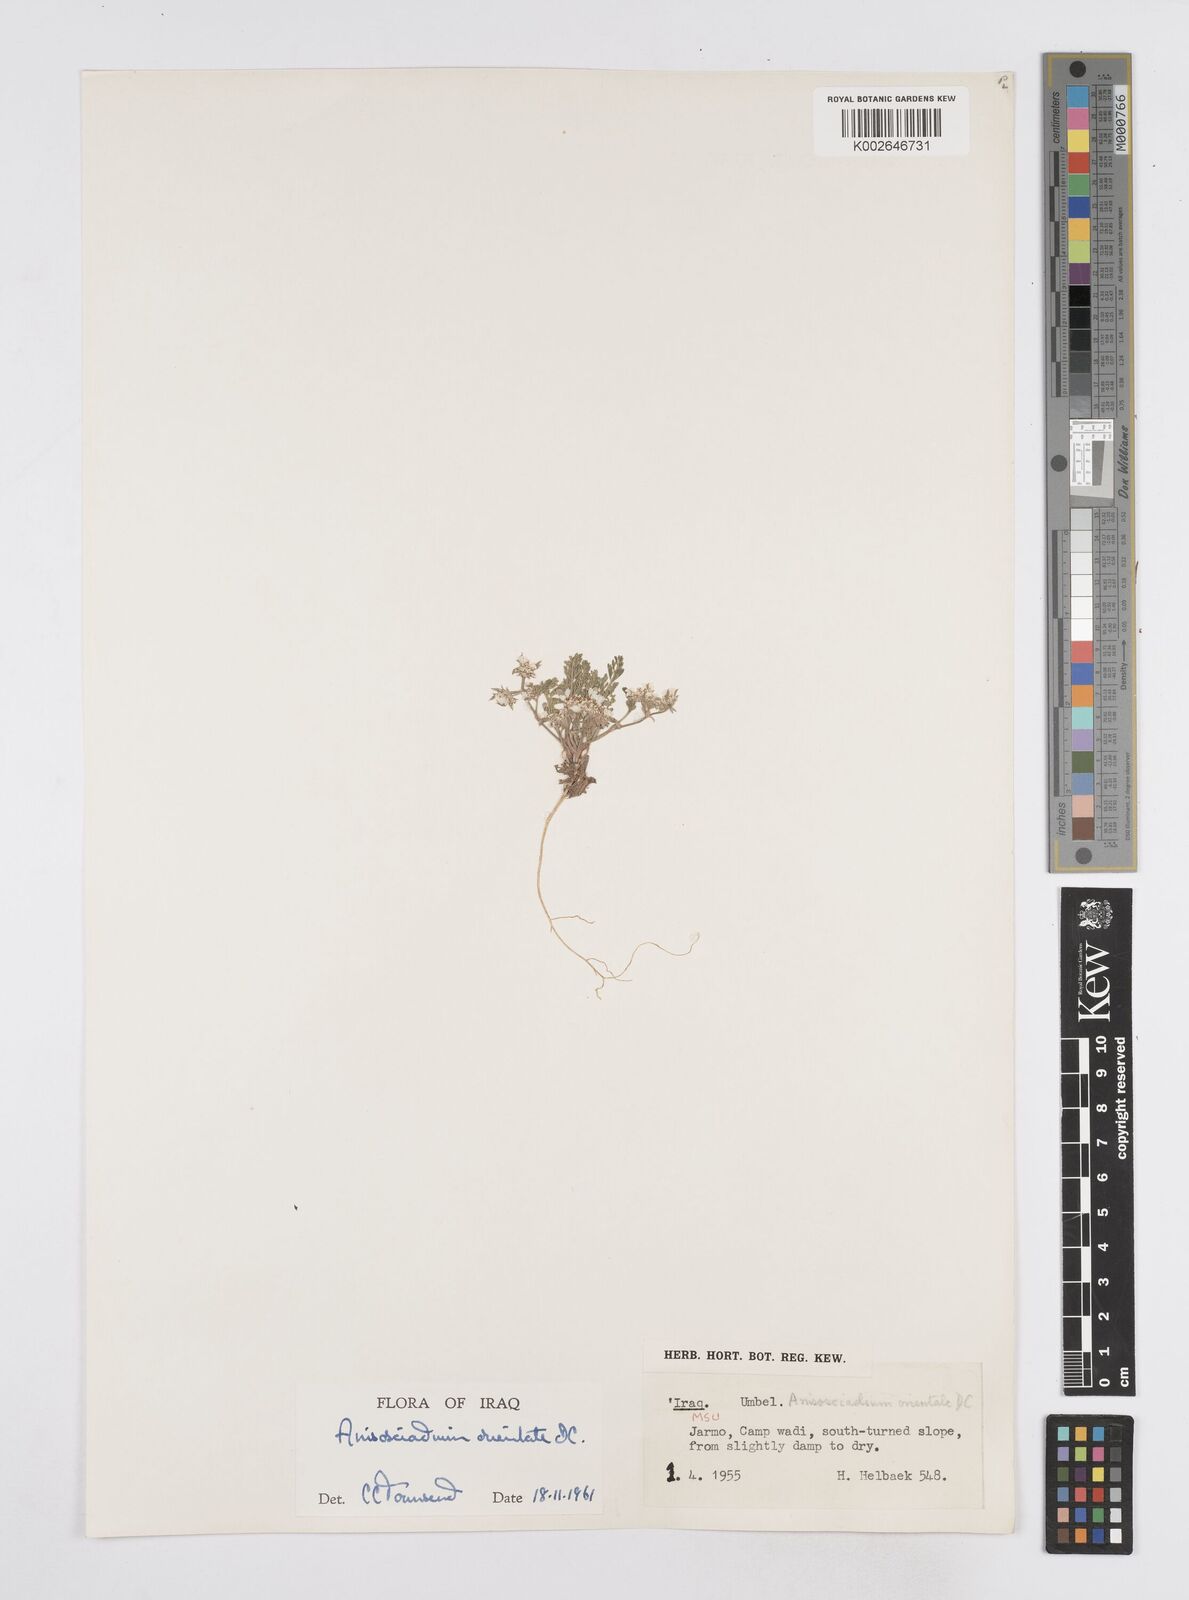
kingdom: Plantae
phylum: Tracheophyta
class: Magnoliopsida
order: Apiales
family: Apiaceae
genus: Anisosciadium
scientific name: Anisosciadium orientale
